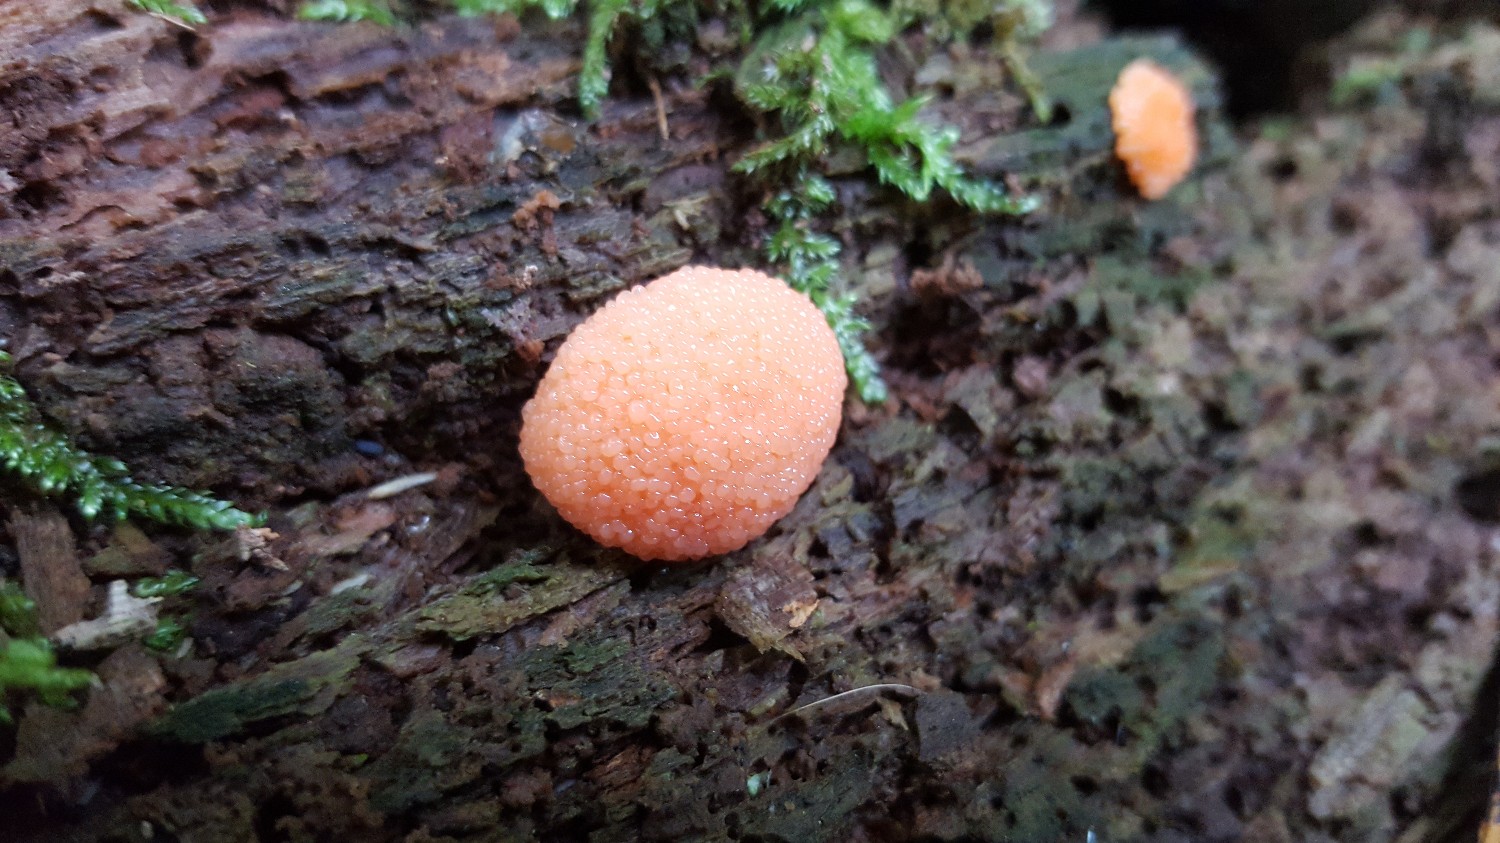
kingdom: Protozoa
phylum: Mycetozoa
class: Myxomycetes
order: Cribrariales
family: Tubiferaceae
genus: Tubifera
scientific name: Tubifera ferruginosa
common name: kanel-støvrør
